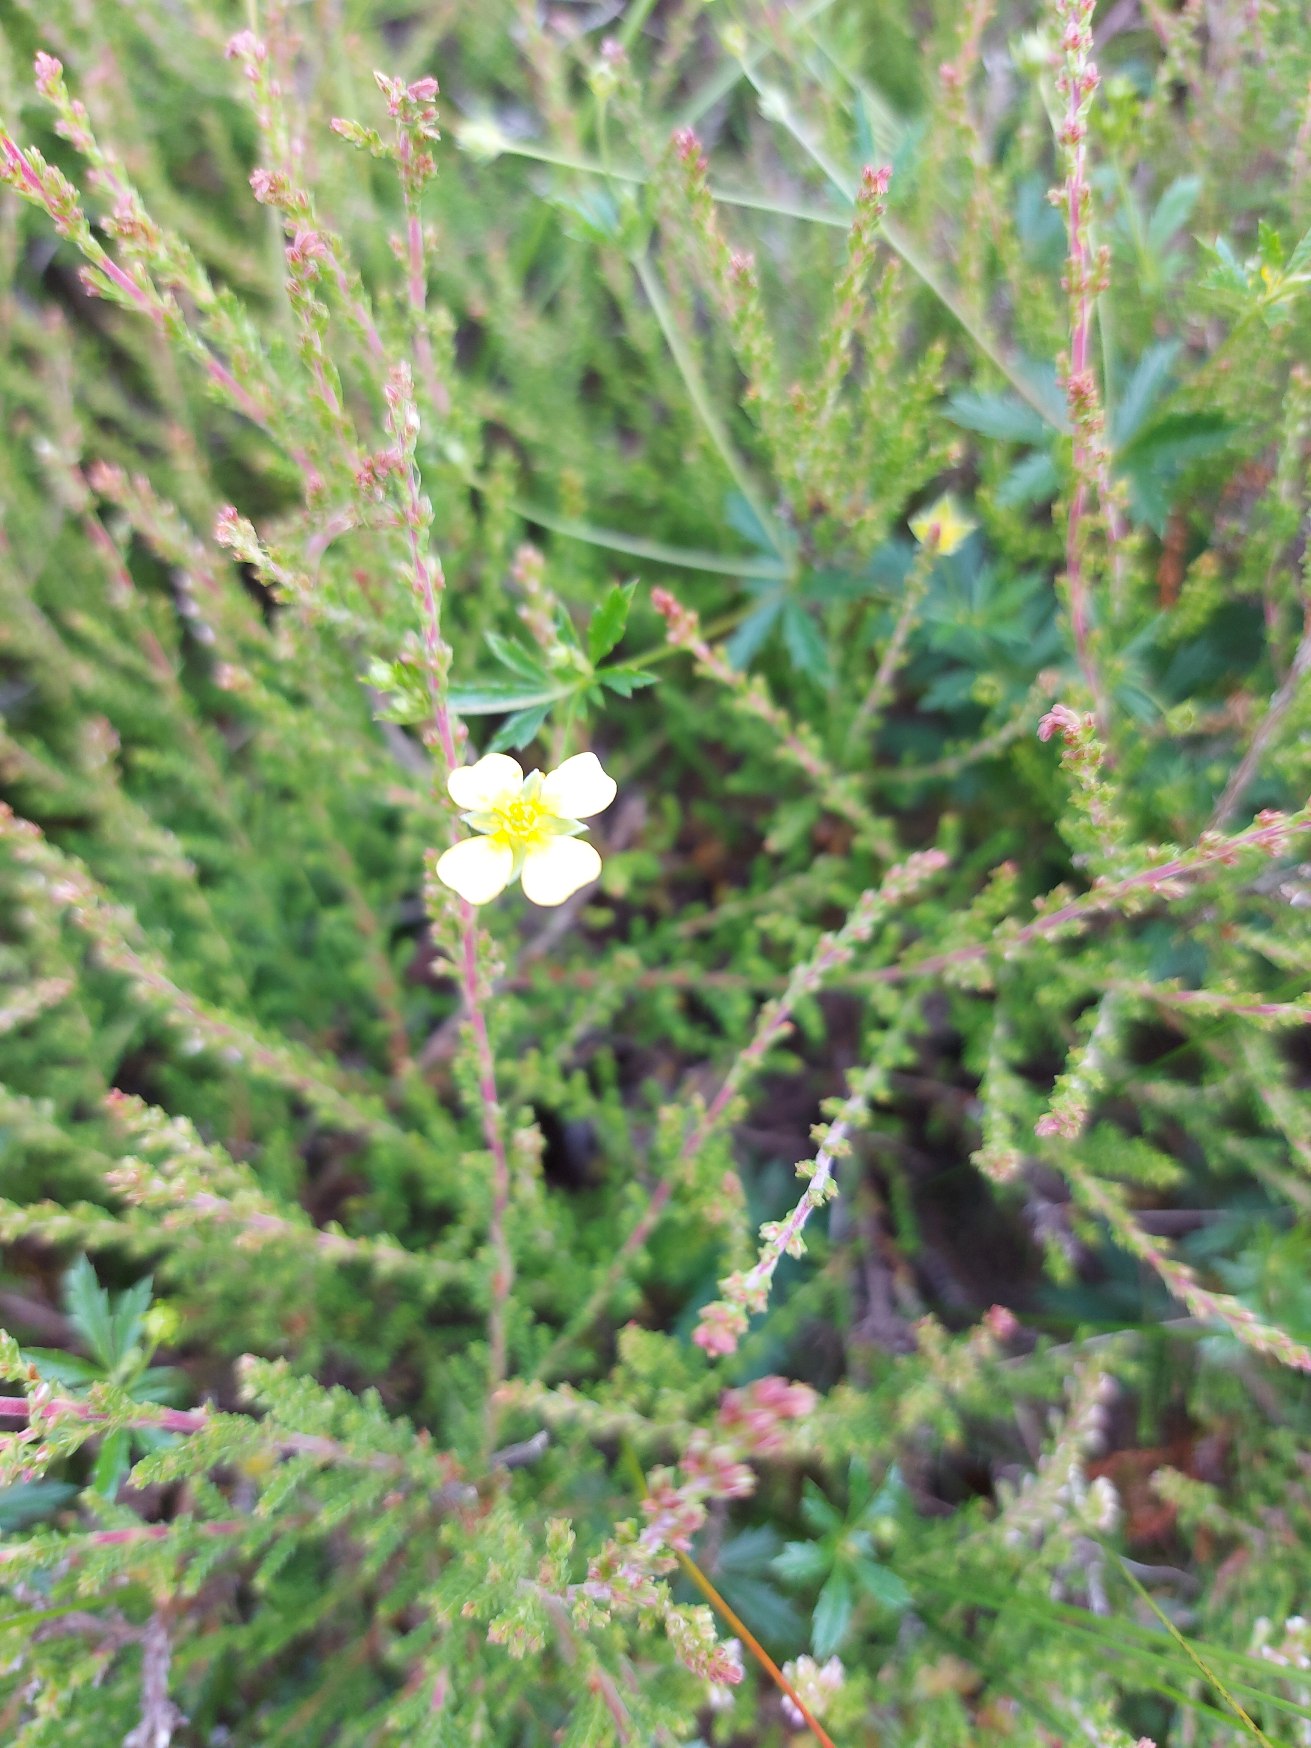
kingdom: Plantae
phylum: Tracheophyta
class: Magnoliopsida
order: Rosales
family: Rosaceae
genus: Potentilla
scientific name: Potentilla erecta
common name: Tormentil
